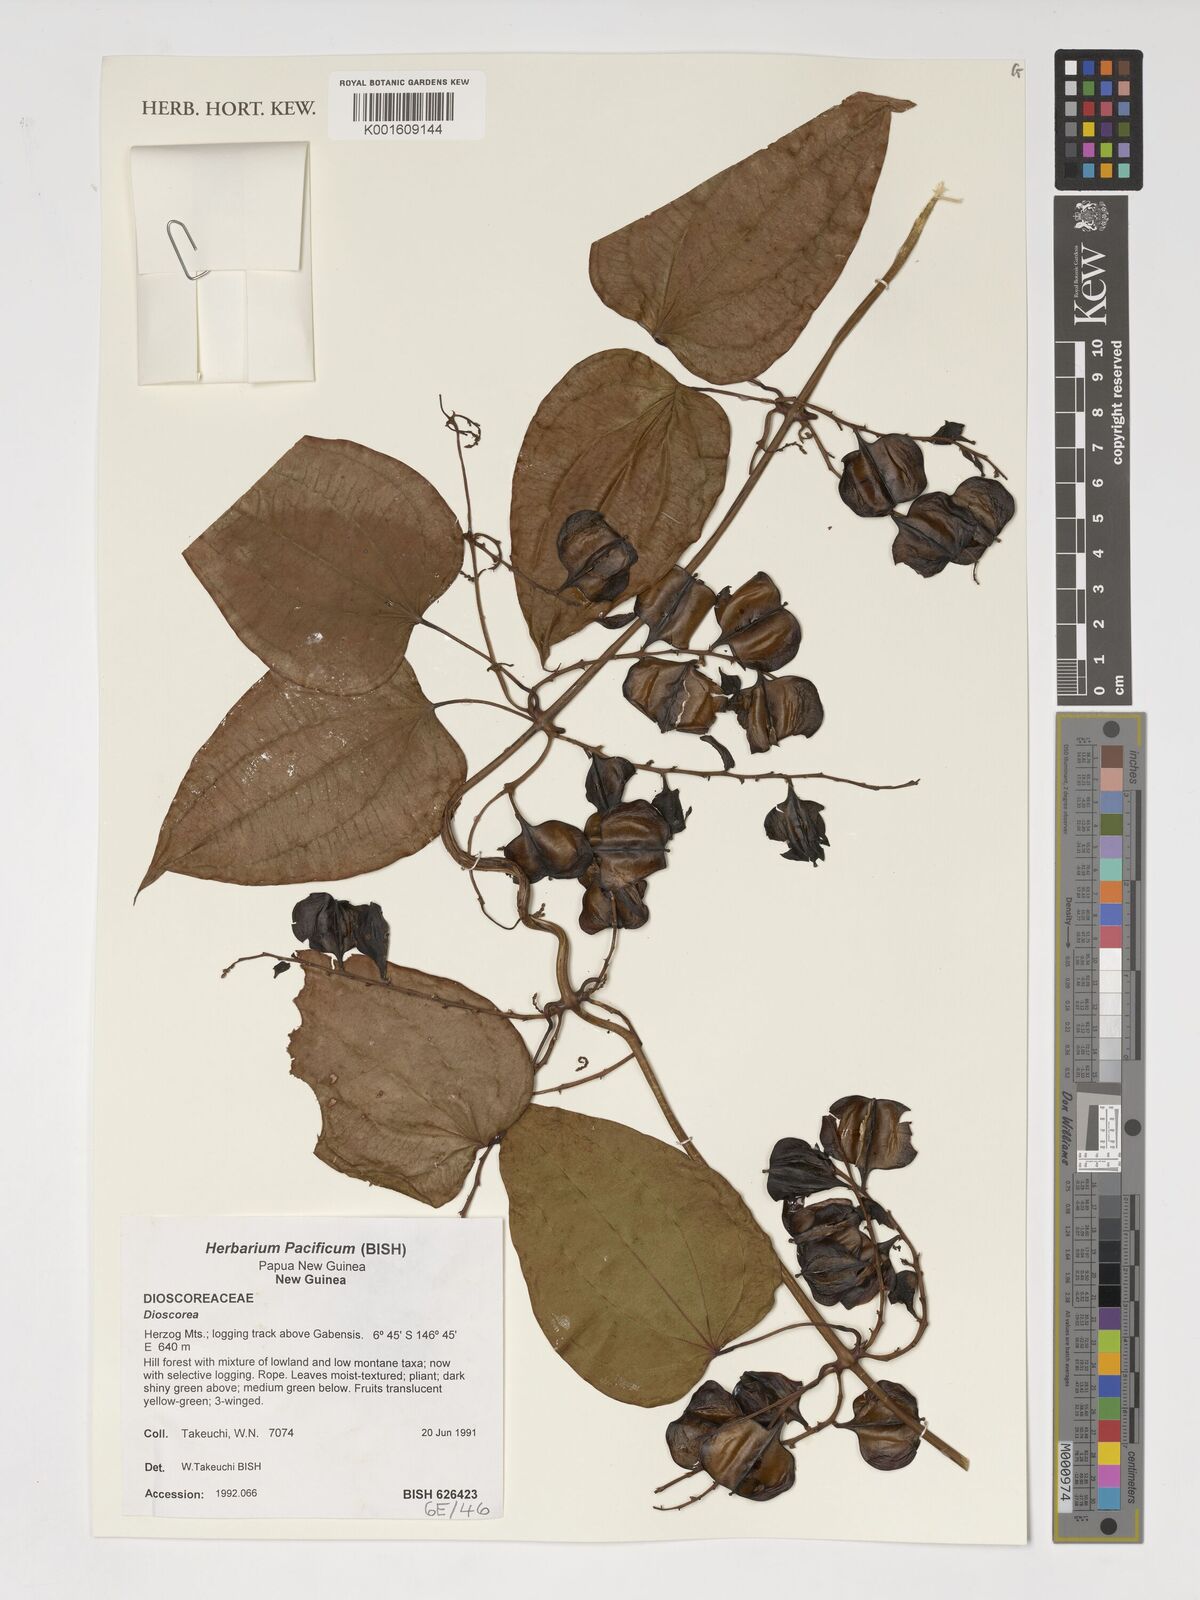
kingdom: Plantae
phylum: Tracheophyta
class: Liliopsida
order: Dioscoreales
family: Dioscoreaceae
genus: Dioscorea
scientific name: Dioscorea
